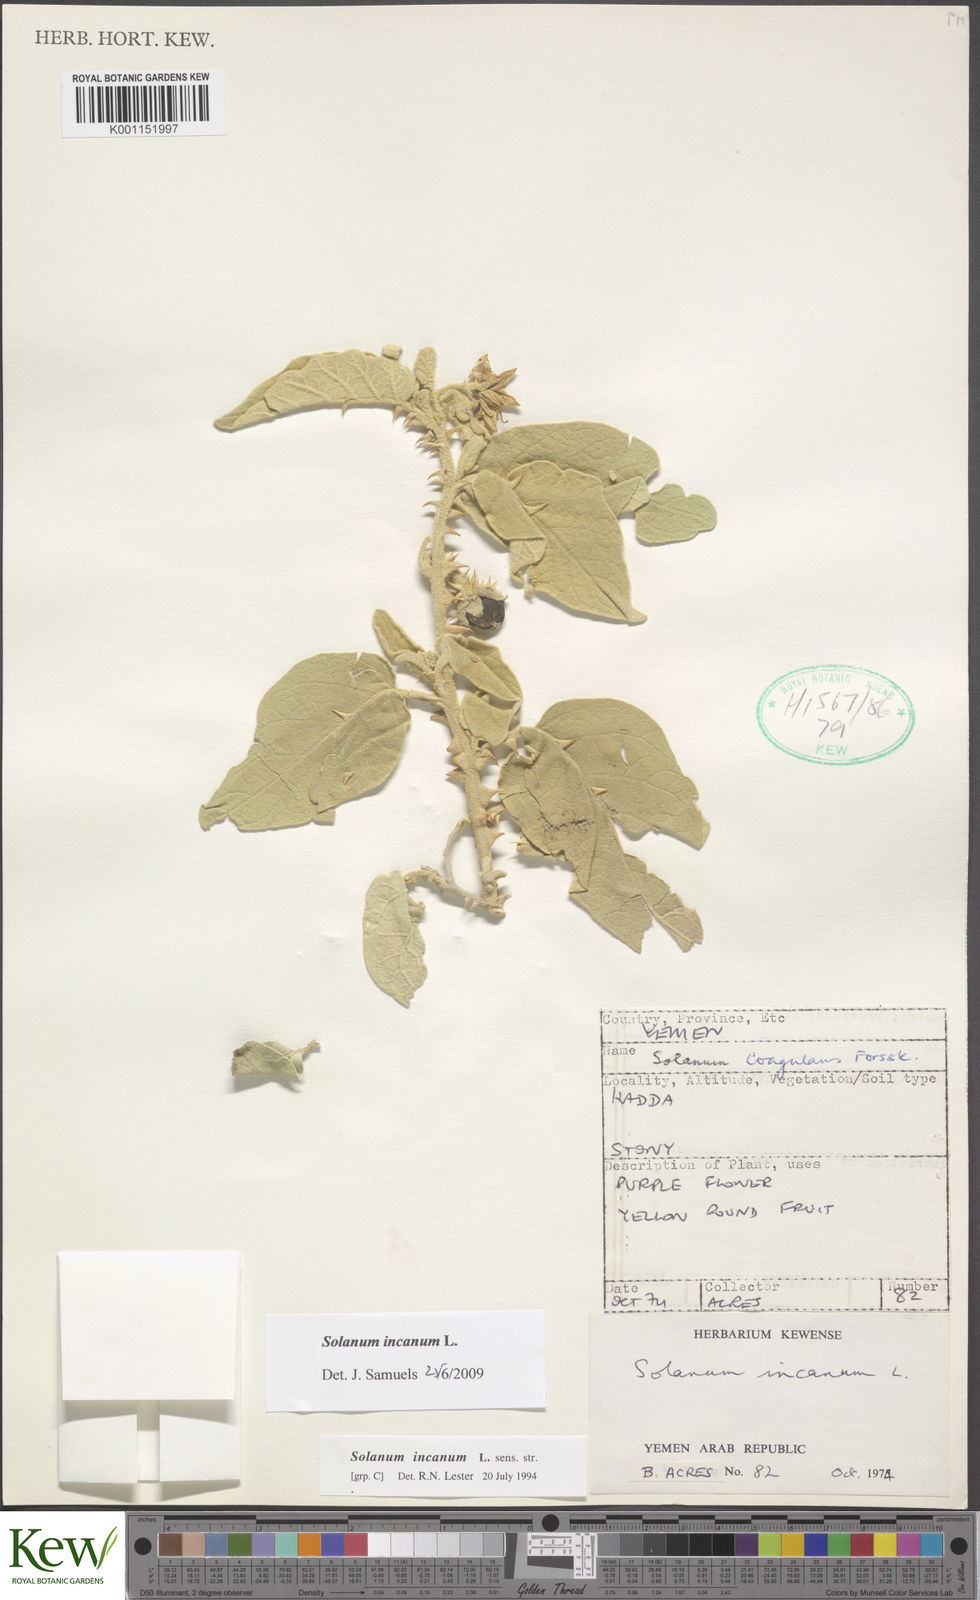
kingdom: Plantae
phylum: Tracheophyta
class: Magnoliopsida
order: Solanales
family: Solanaceae
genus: Solanum
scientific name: Solanum incanum
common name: Bitter apple
